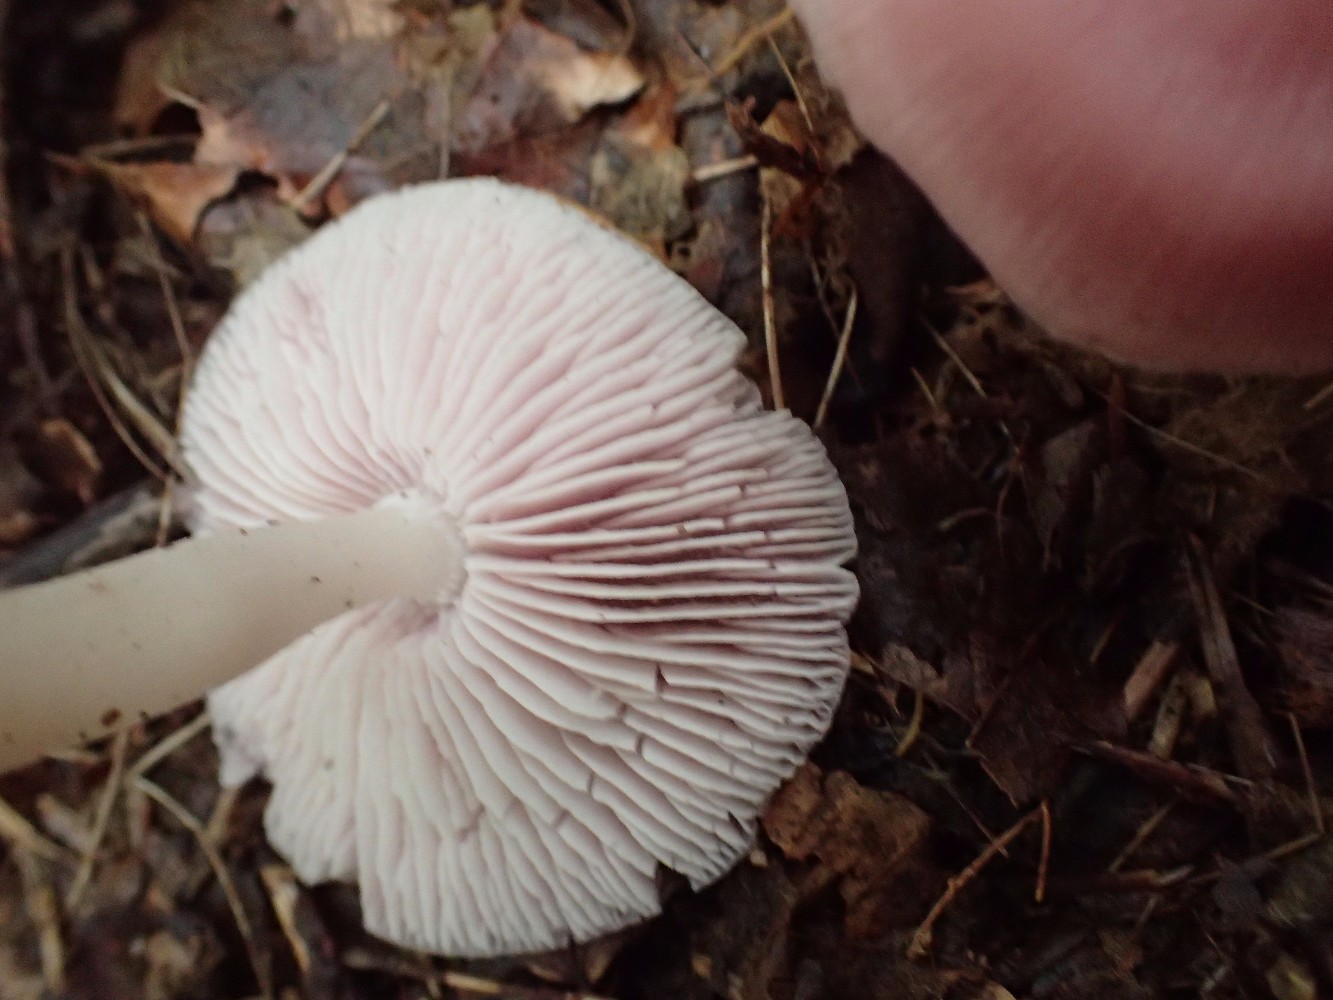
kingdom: Fungi
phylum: Basidiomycota
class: Agaricomycetes
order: Agaricales
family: Mycenaceae
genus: Mycena
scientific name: Mycena rosea
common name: rosa huesvamp
